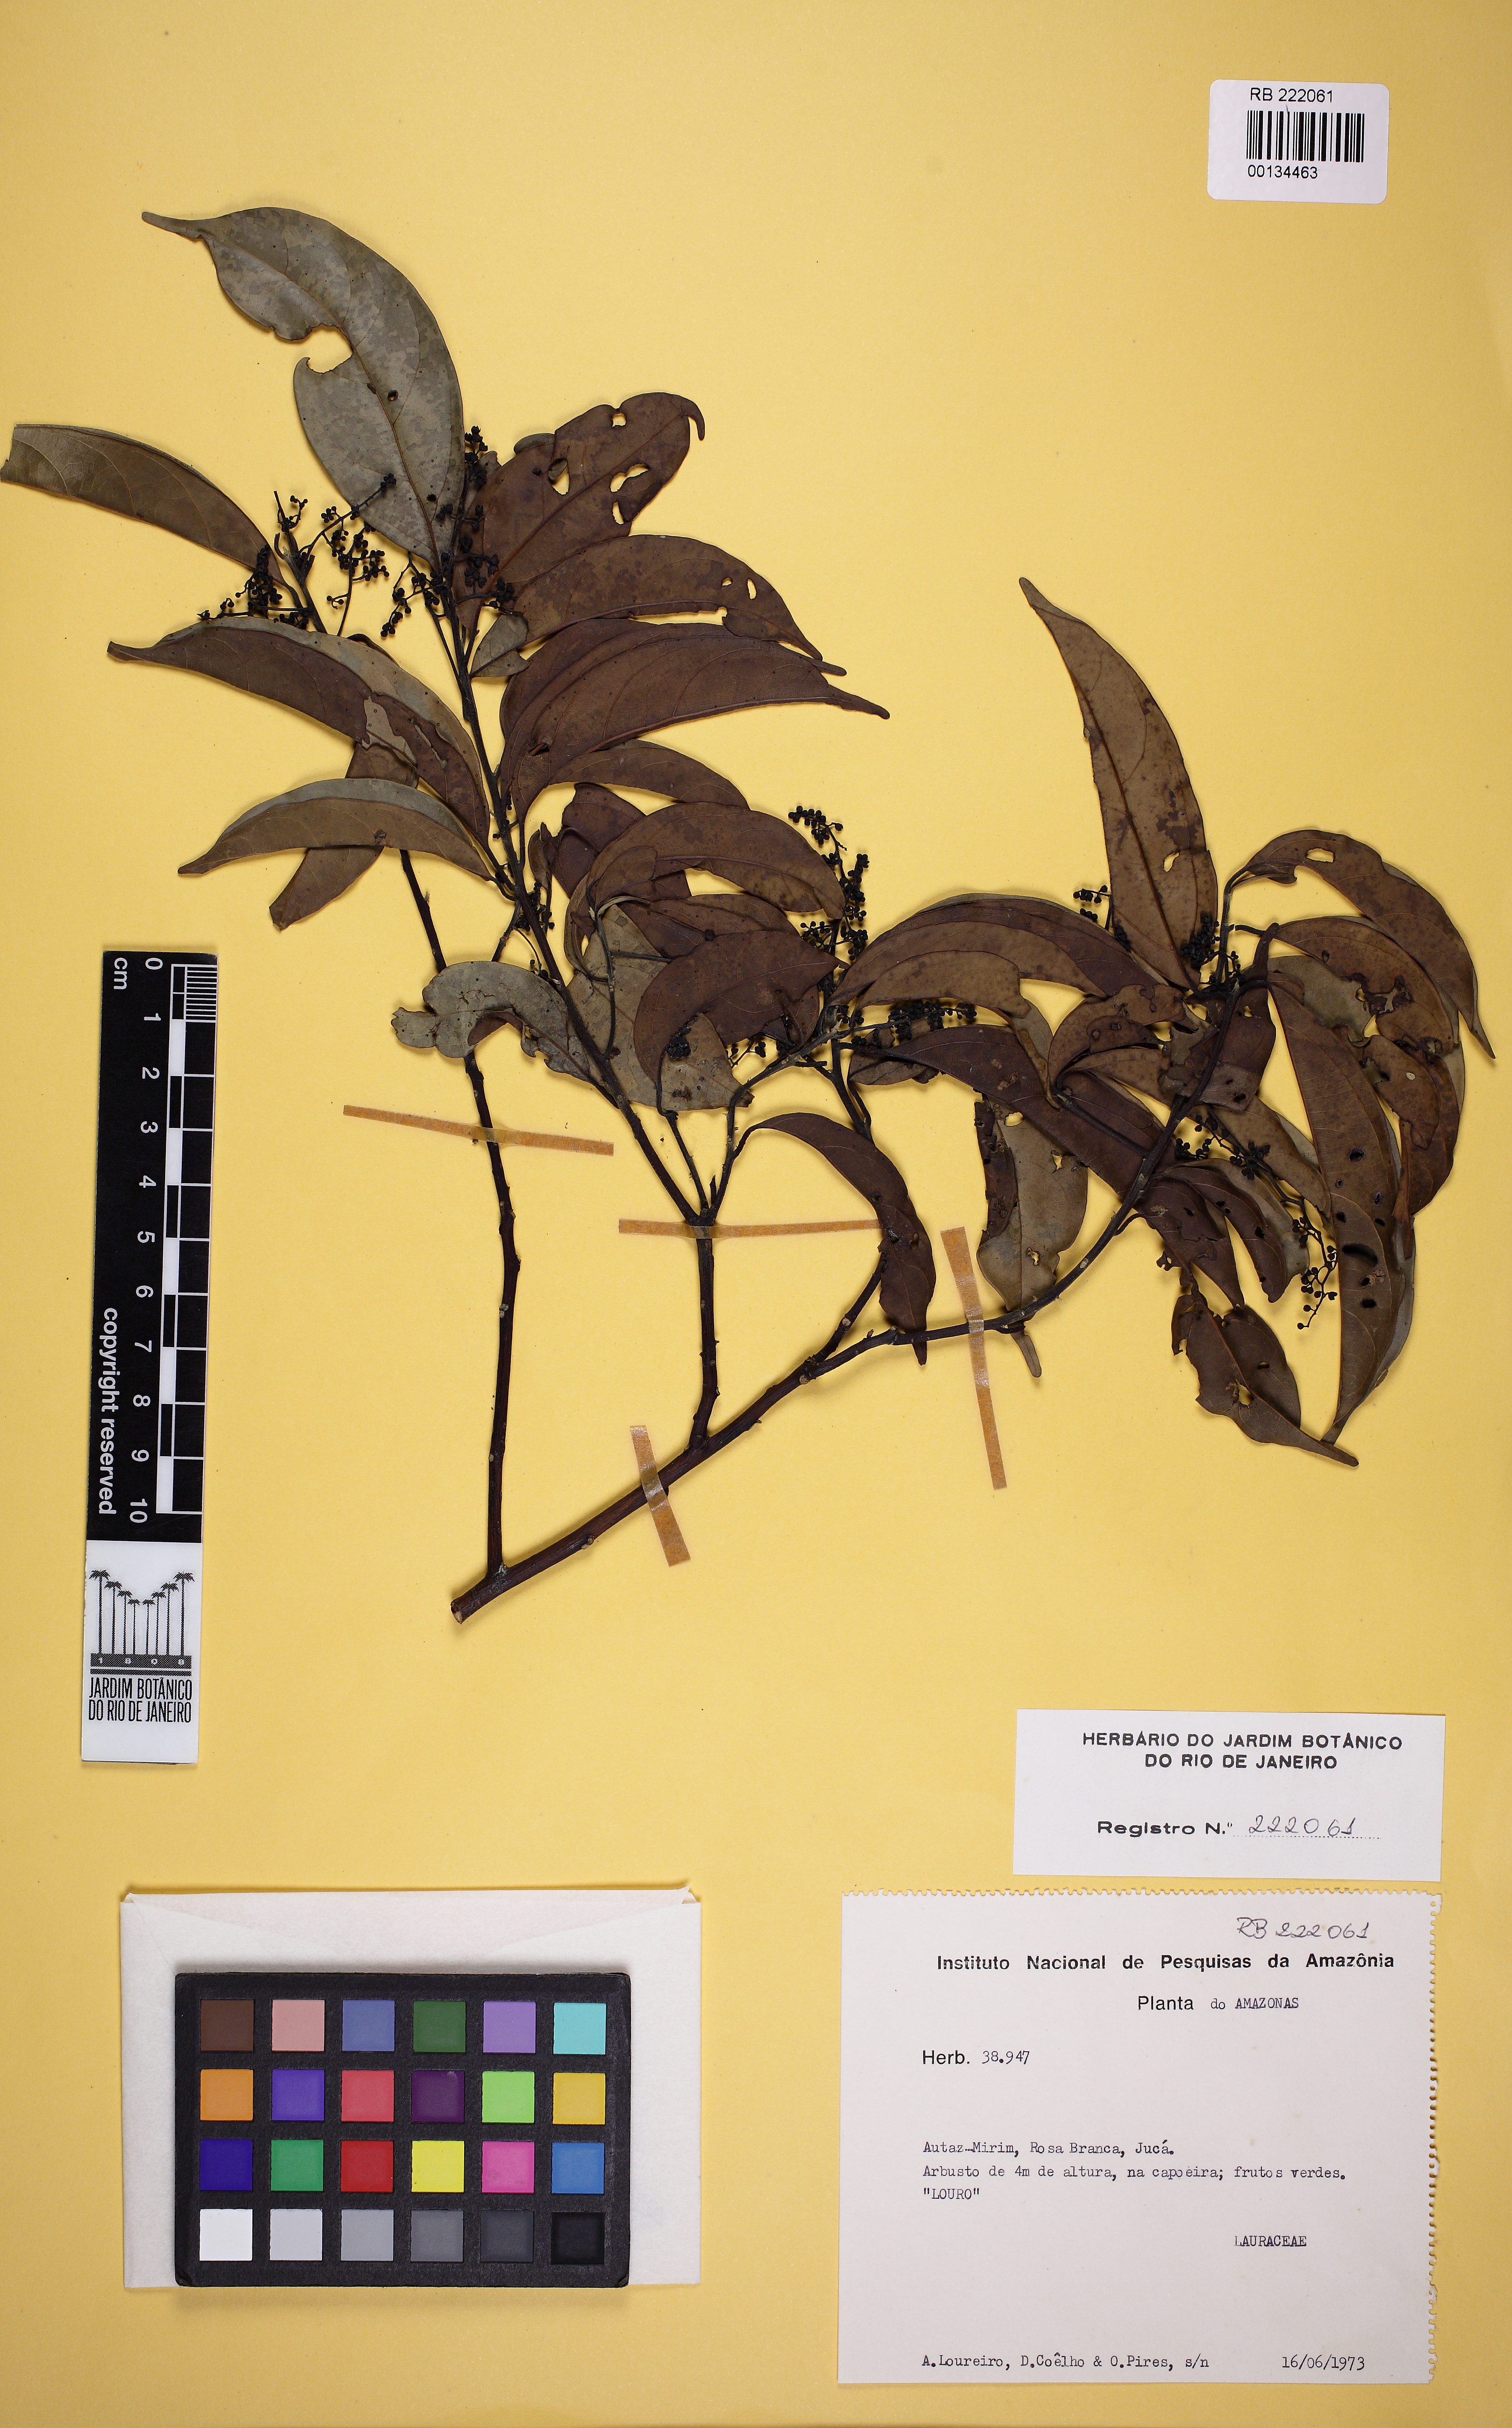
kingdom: Plantae
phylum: Tracheophyta
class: Magnoliopsida
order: Laurales
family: Lauraceae
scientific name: Lauraceae
